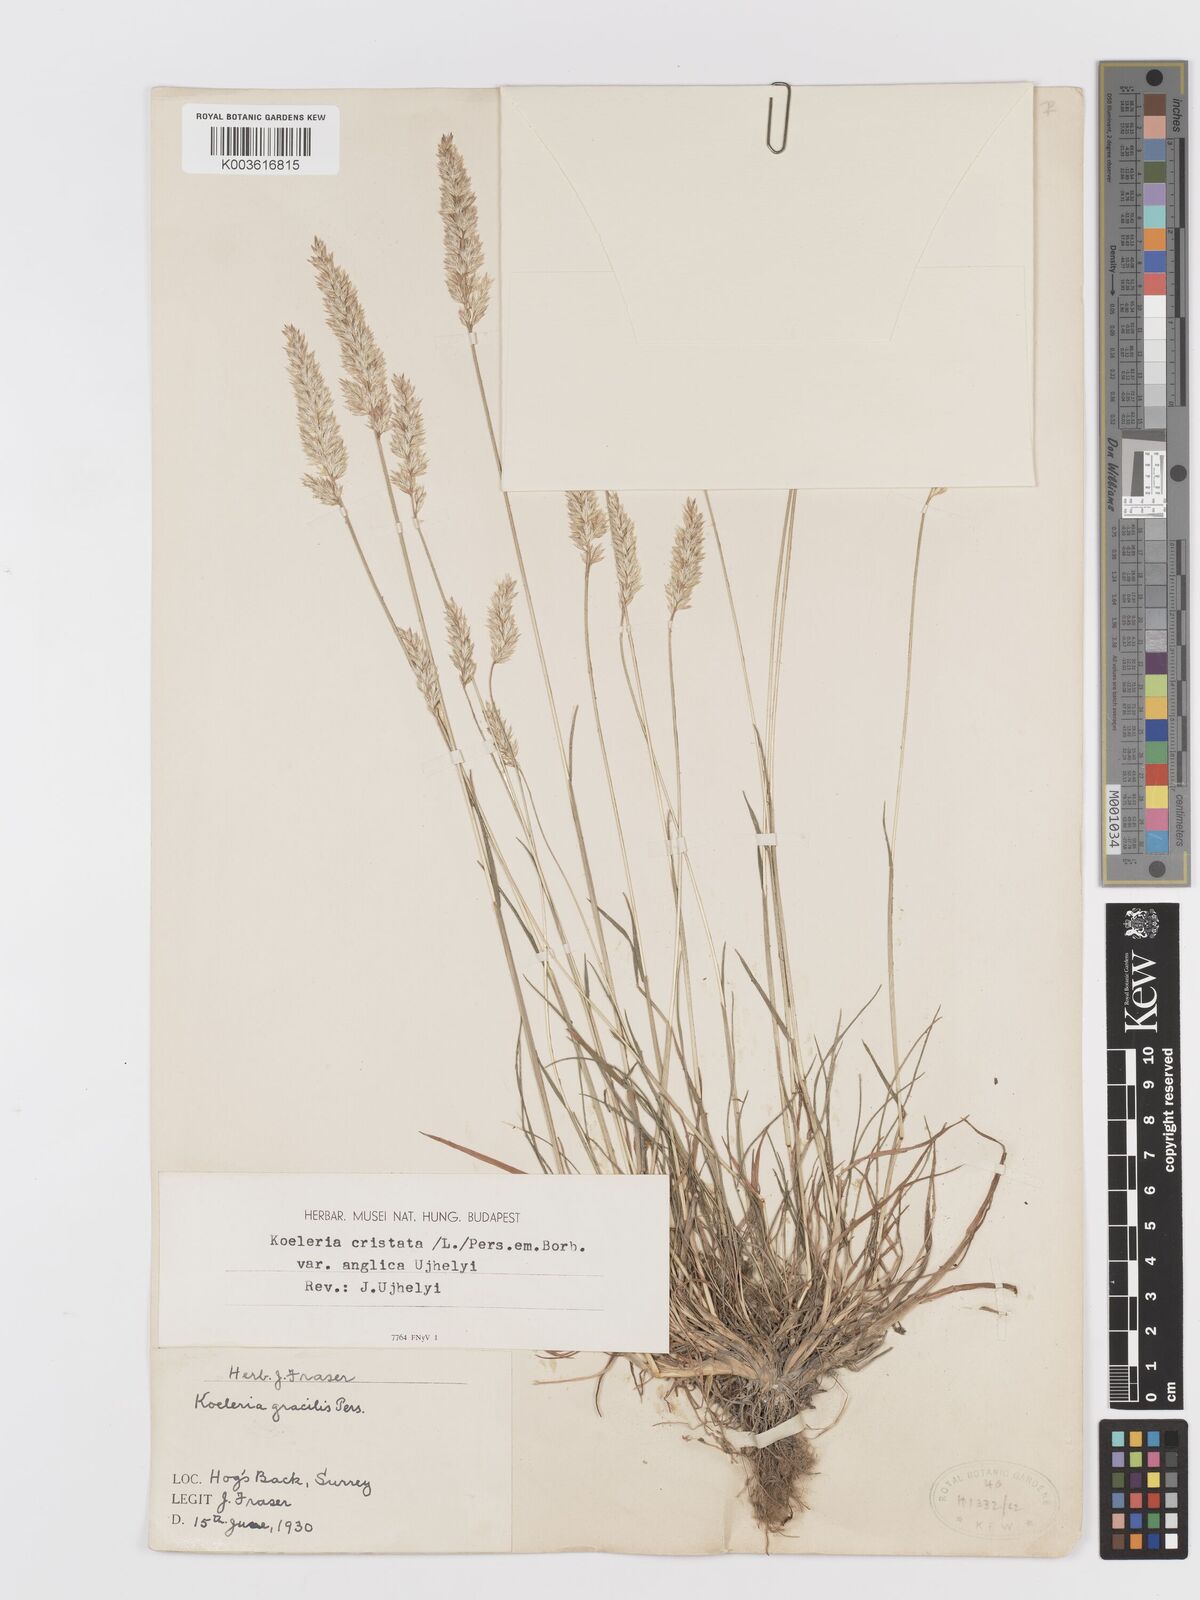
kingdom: Plantae
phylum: Tracheophyta
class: Liliopsida
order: Poales
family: Poaceae
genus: Koeleria
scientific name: Koeleria macrantha
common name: Crested hair-grass
